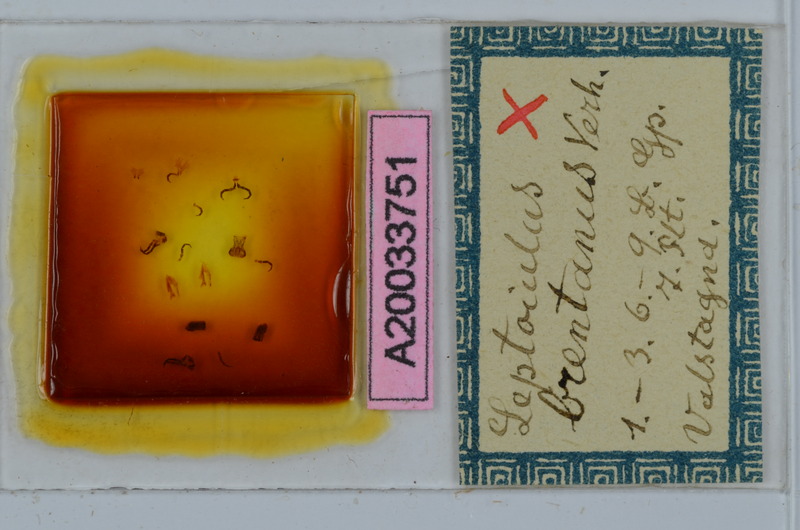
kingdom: Animalia
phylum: Arthropoda
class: Diplopoda
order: Julida
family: Julidae
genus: Leptoiulus
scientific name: Leptoiulus brentanus
